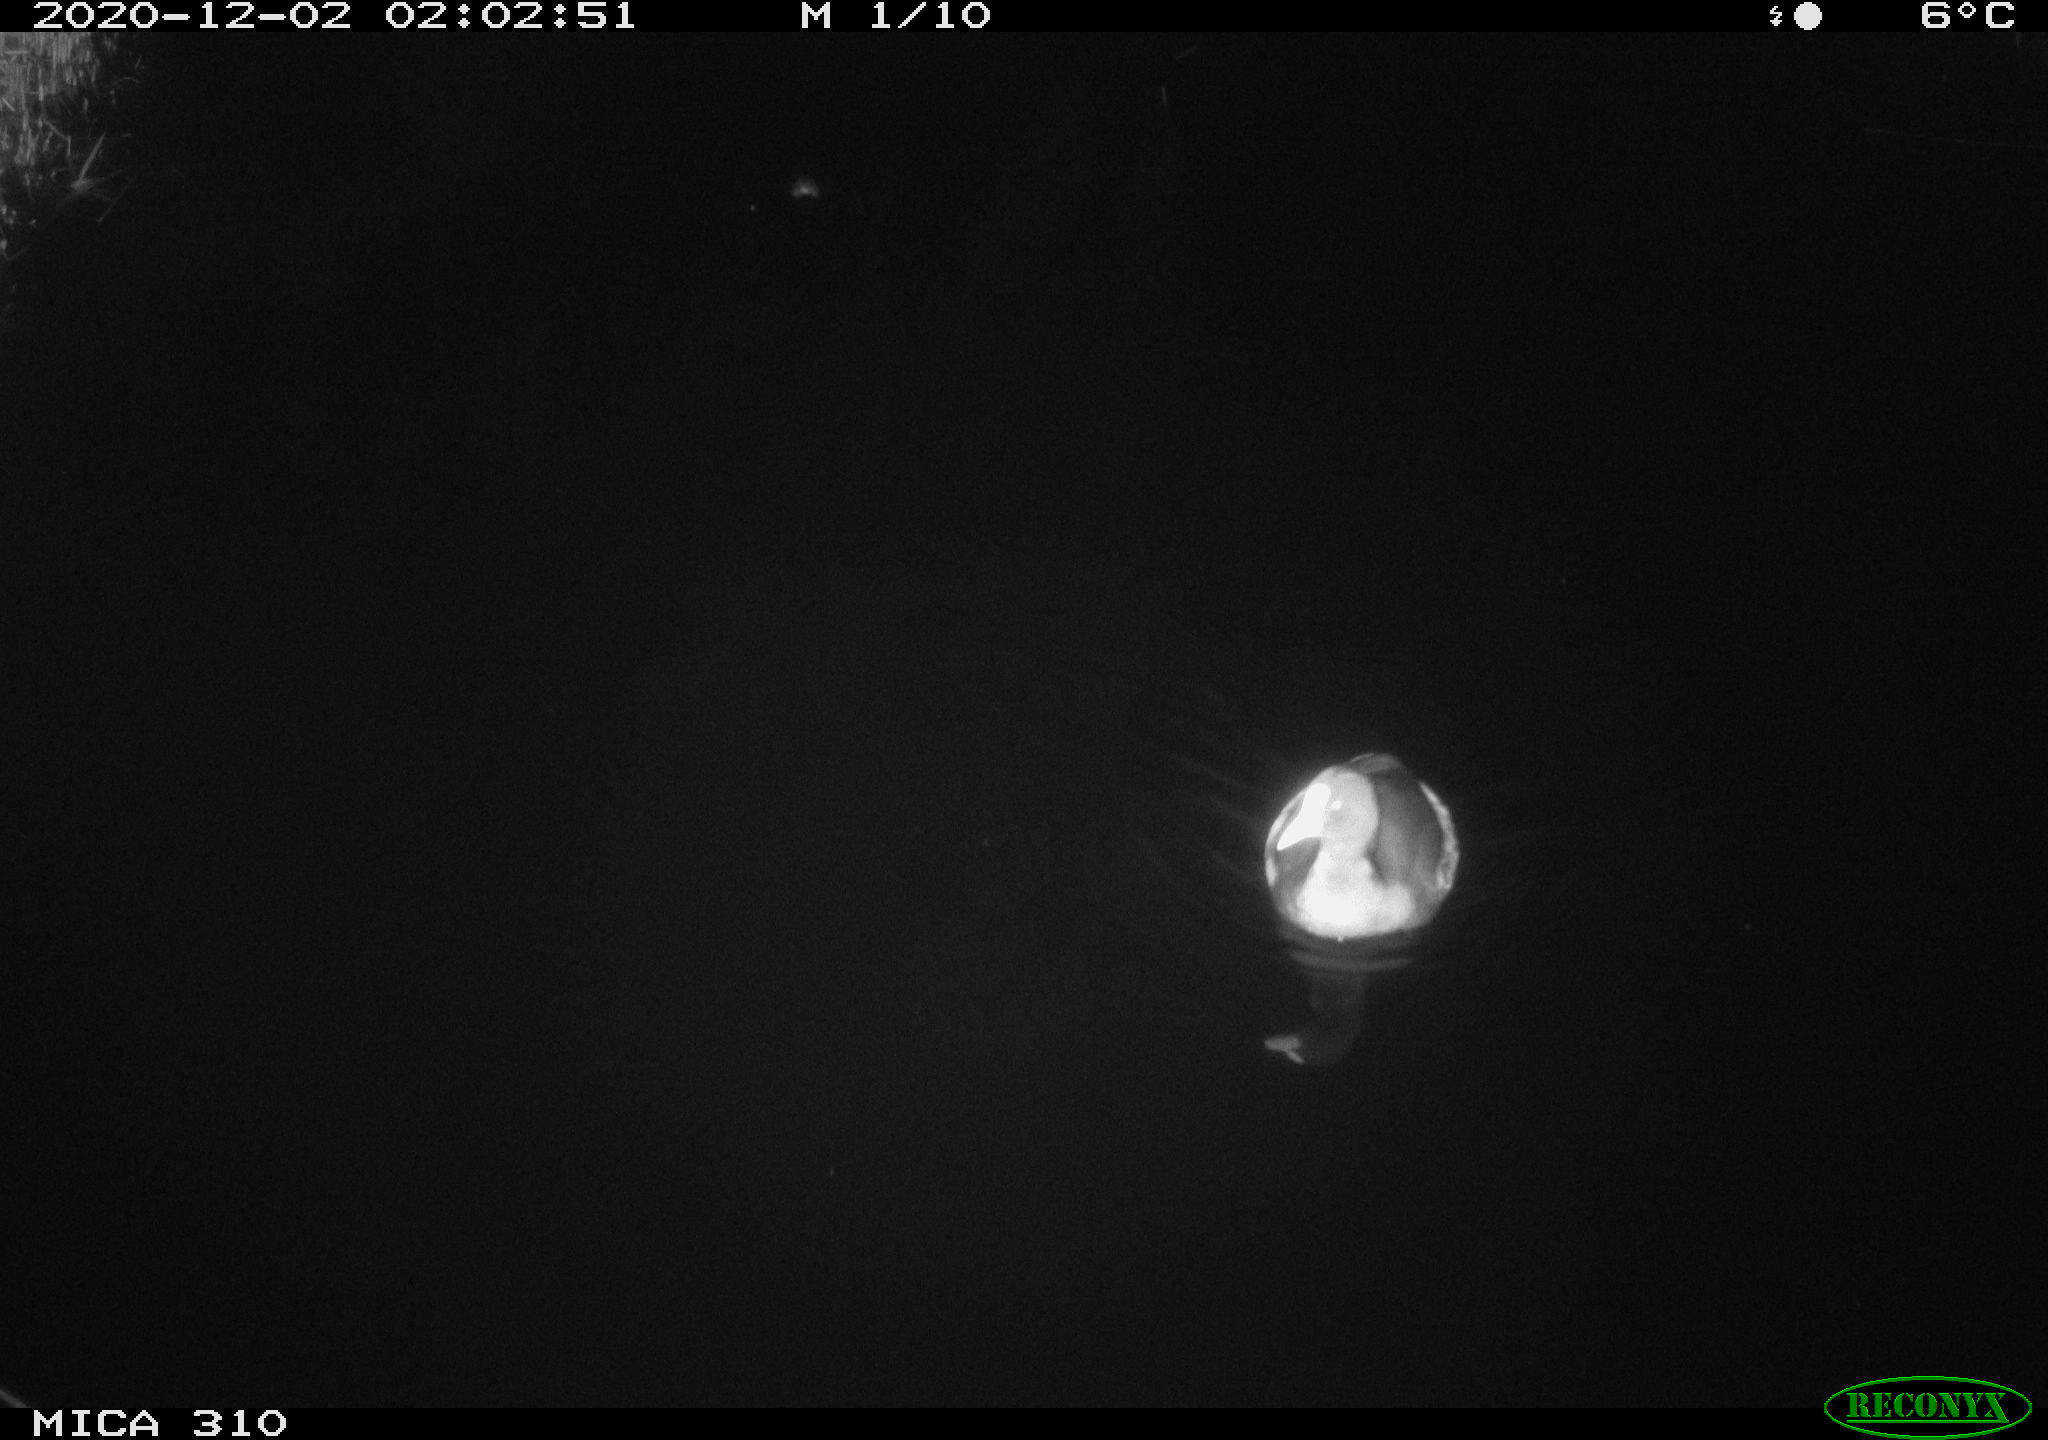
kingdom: Animalia
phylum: Chordata
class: Aves
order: Gruiformes
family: Rallidae
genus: Fulica
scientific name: Fulica atra
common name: Eurasian coot
